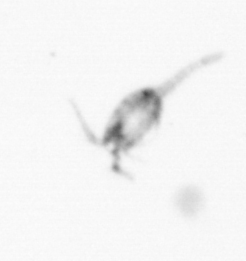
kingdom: Animalia
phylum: Arthropoda
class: Copepoda
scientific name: Copepoda
